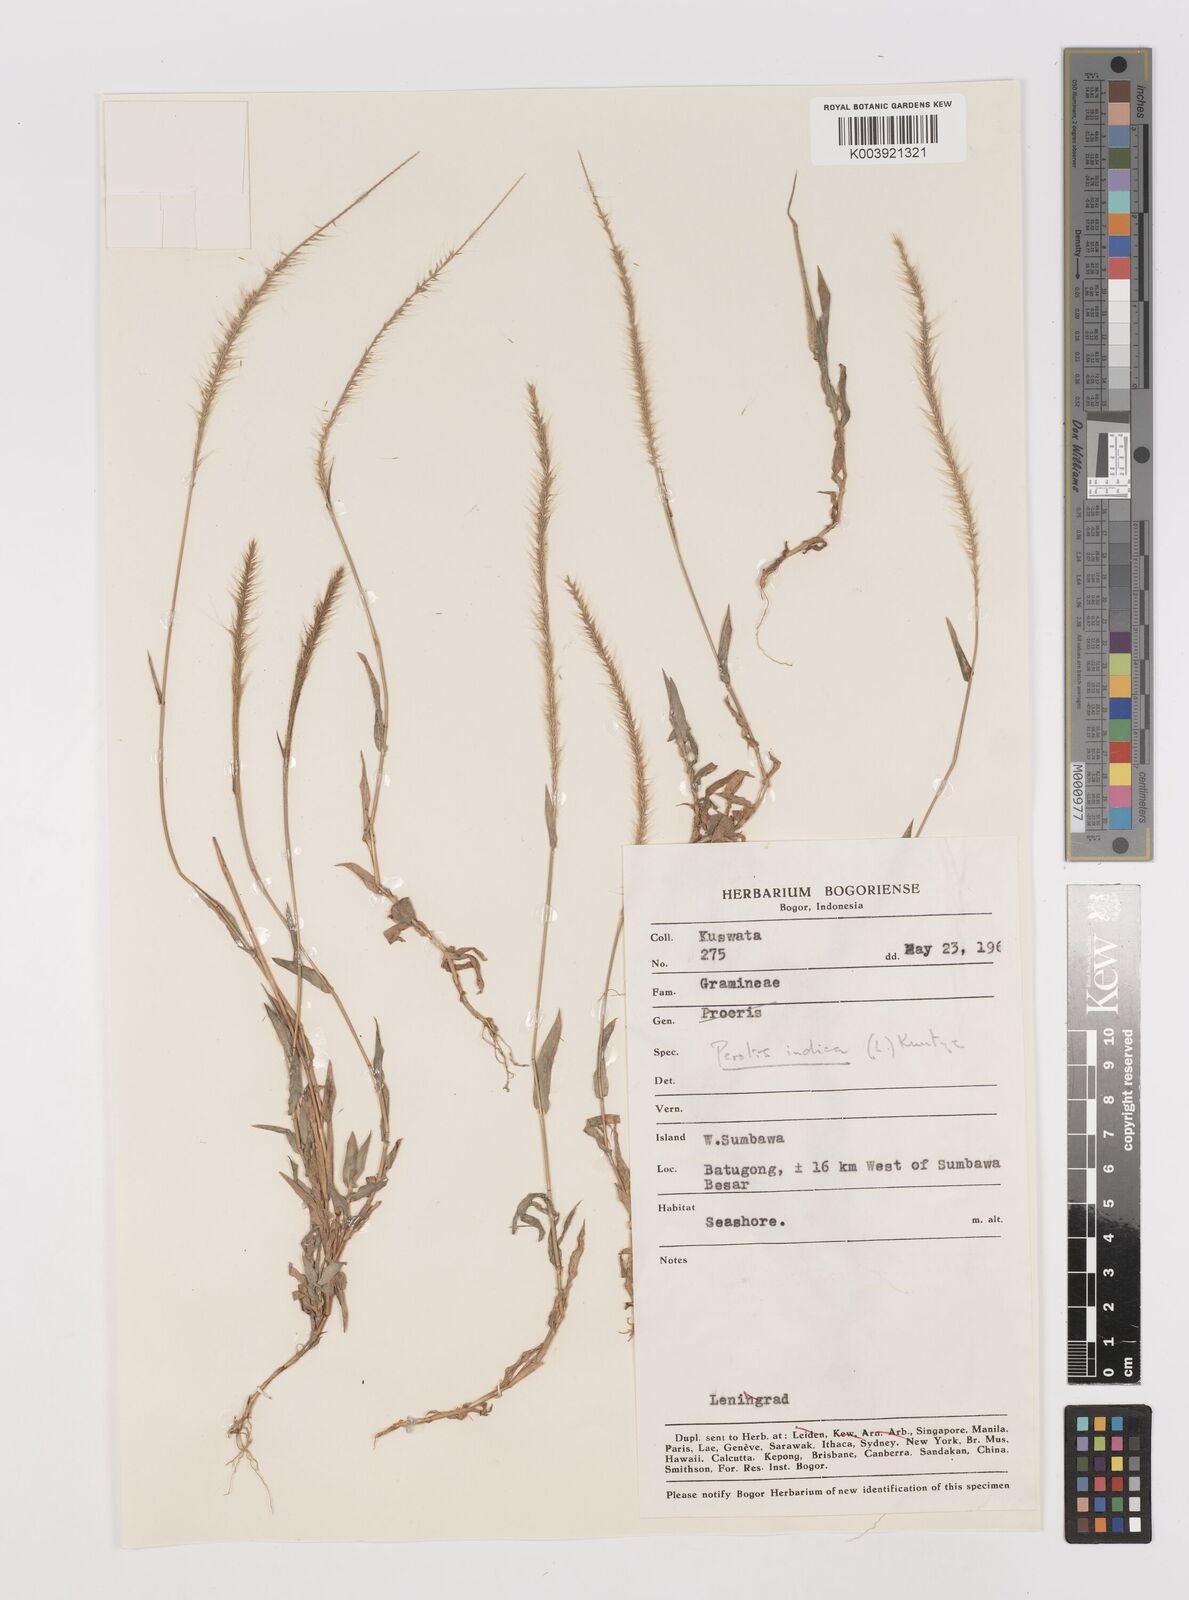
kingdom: Plantae
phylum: Tracheophyta
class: Liliopsida
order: Poales
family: Poaceae
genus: Perotis
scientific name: Perotis indica
